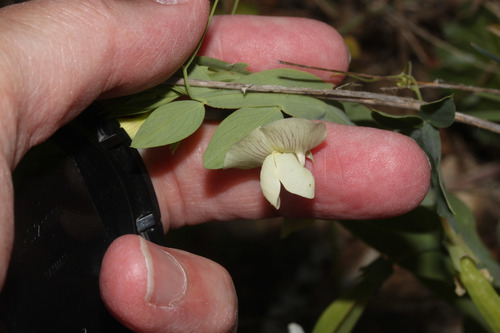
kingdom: Plantae
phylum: Tracheophyta
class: Magnoliopsida
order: Fabales
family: Fabaceae
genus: Lathyrus
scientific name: Lathyrus ochrus
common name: Winged vetchling
